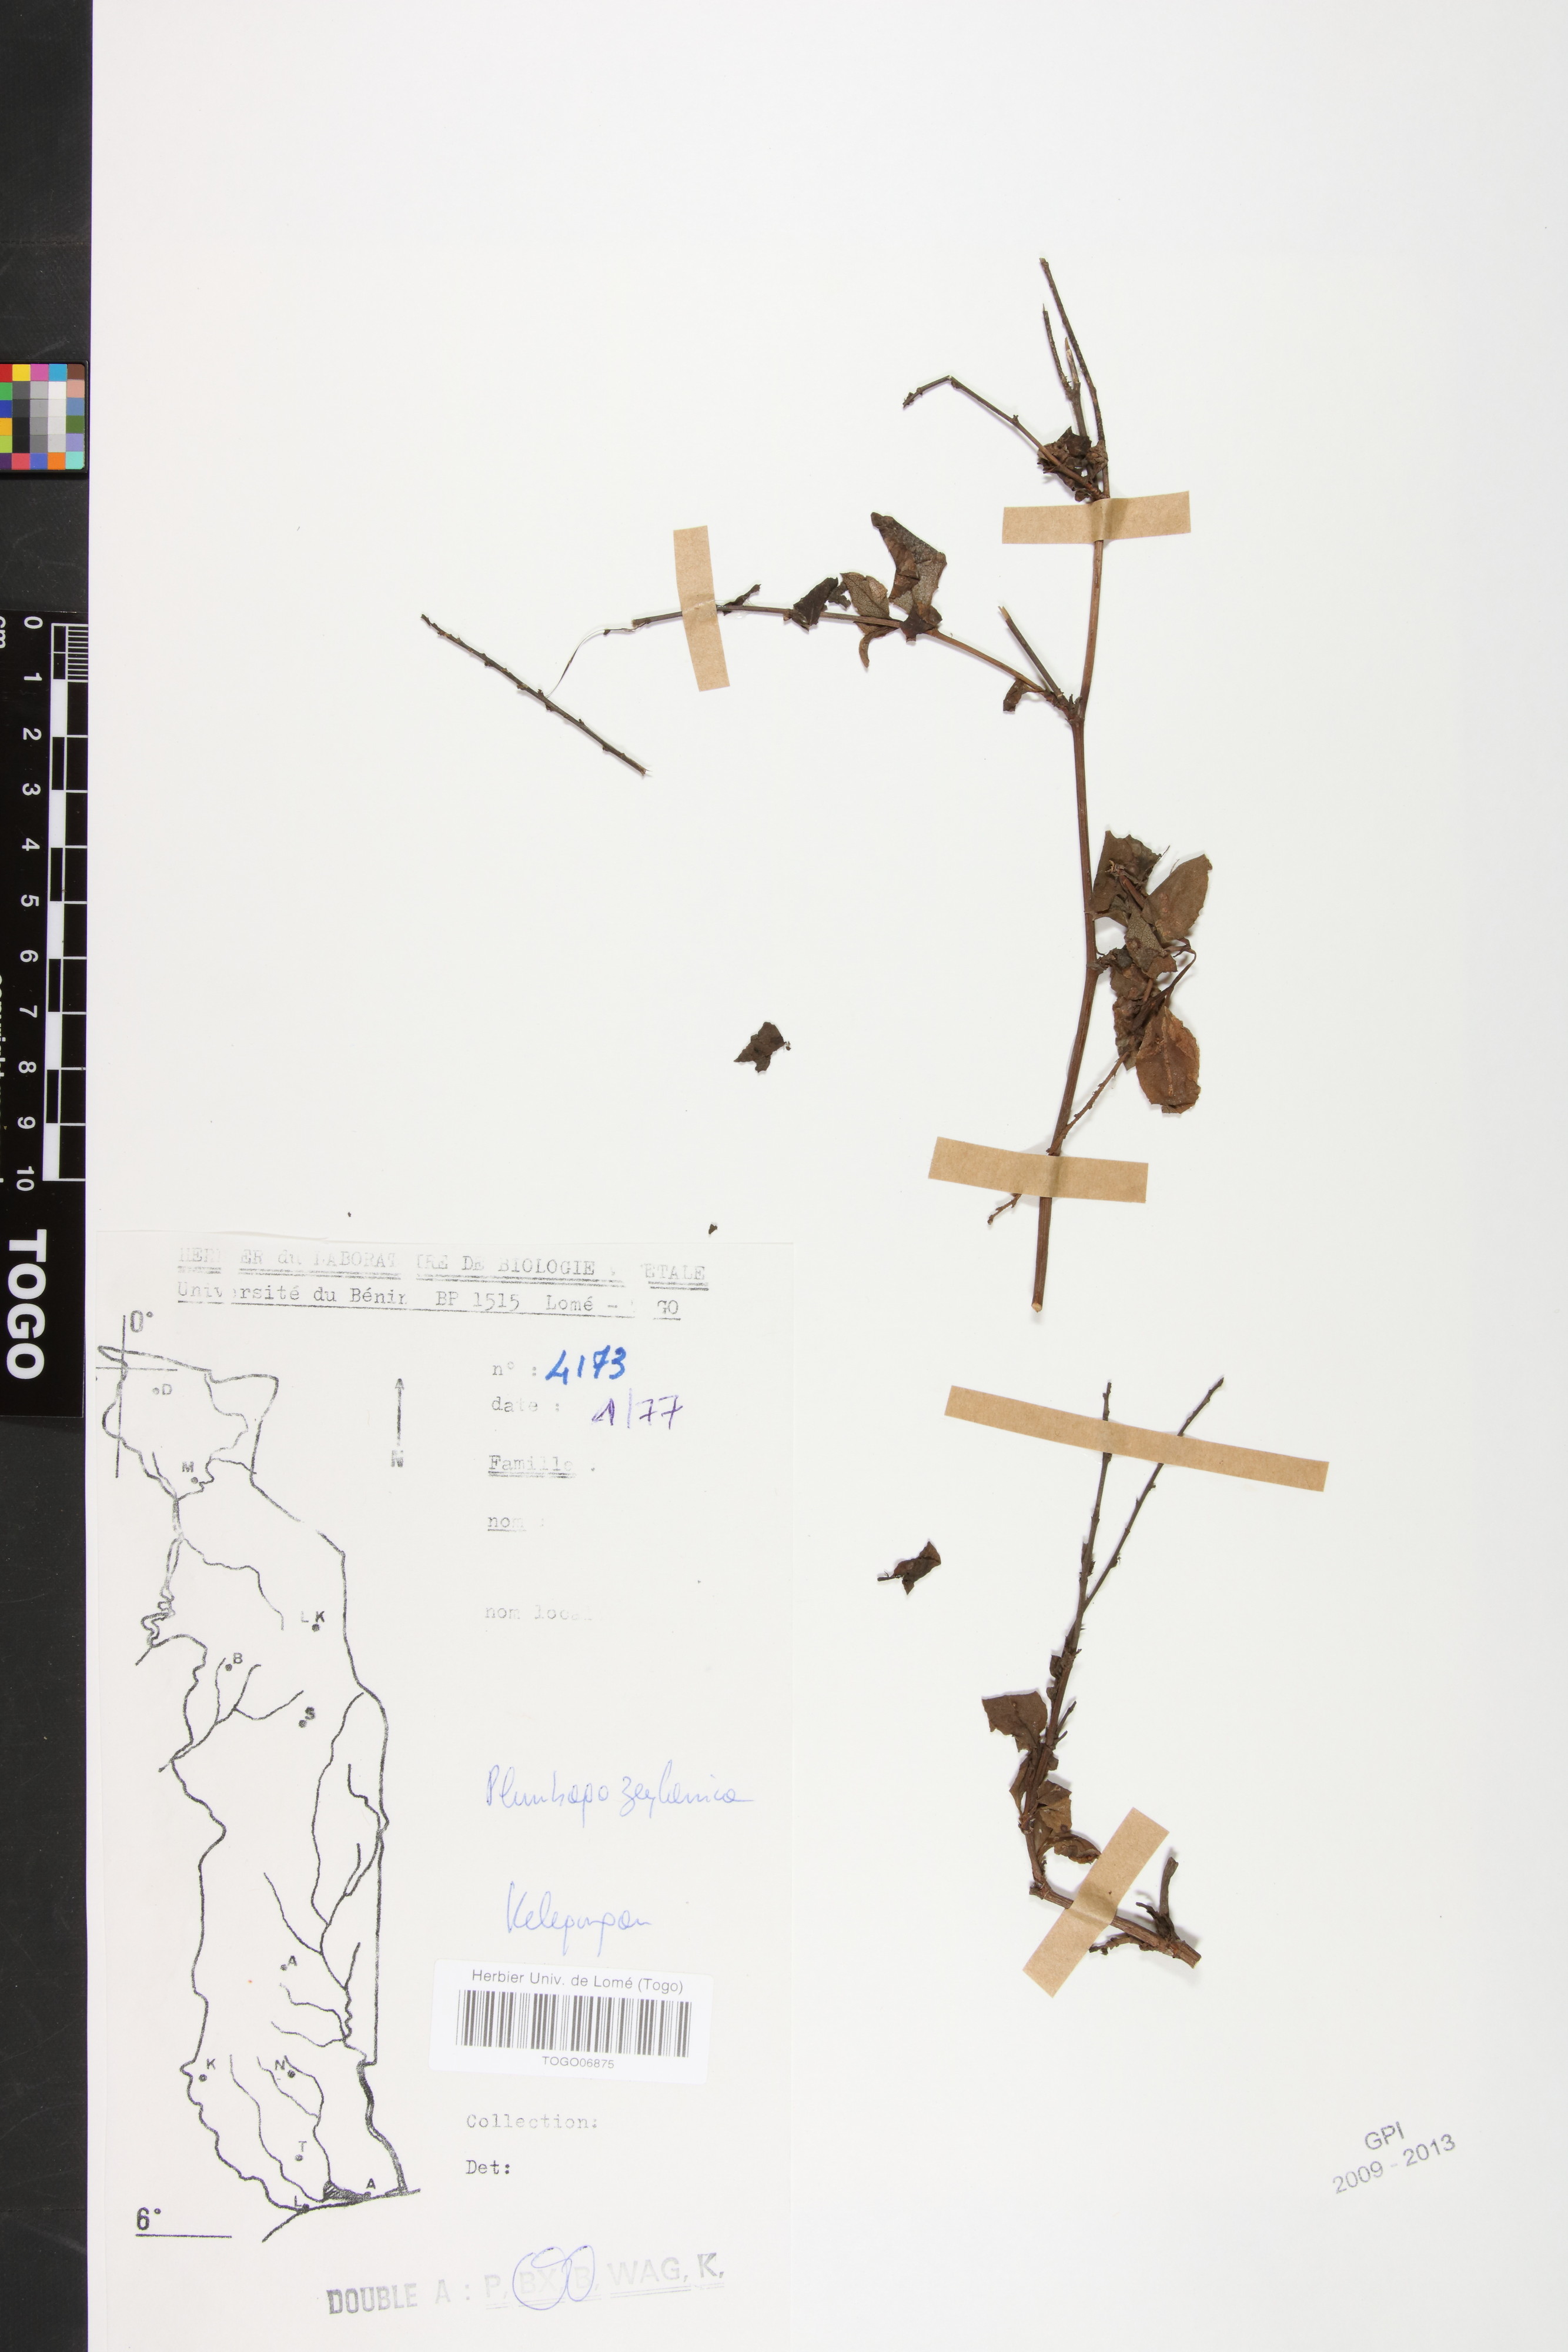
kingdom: Plantae
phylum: Tracheophyta
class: Magnoliopsida
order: Caryophyllales
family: Plumbaginaceae
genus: Plumbago
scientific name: Plumbago zeylanica
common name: Doctorbush
